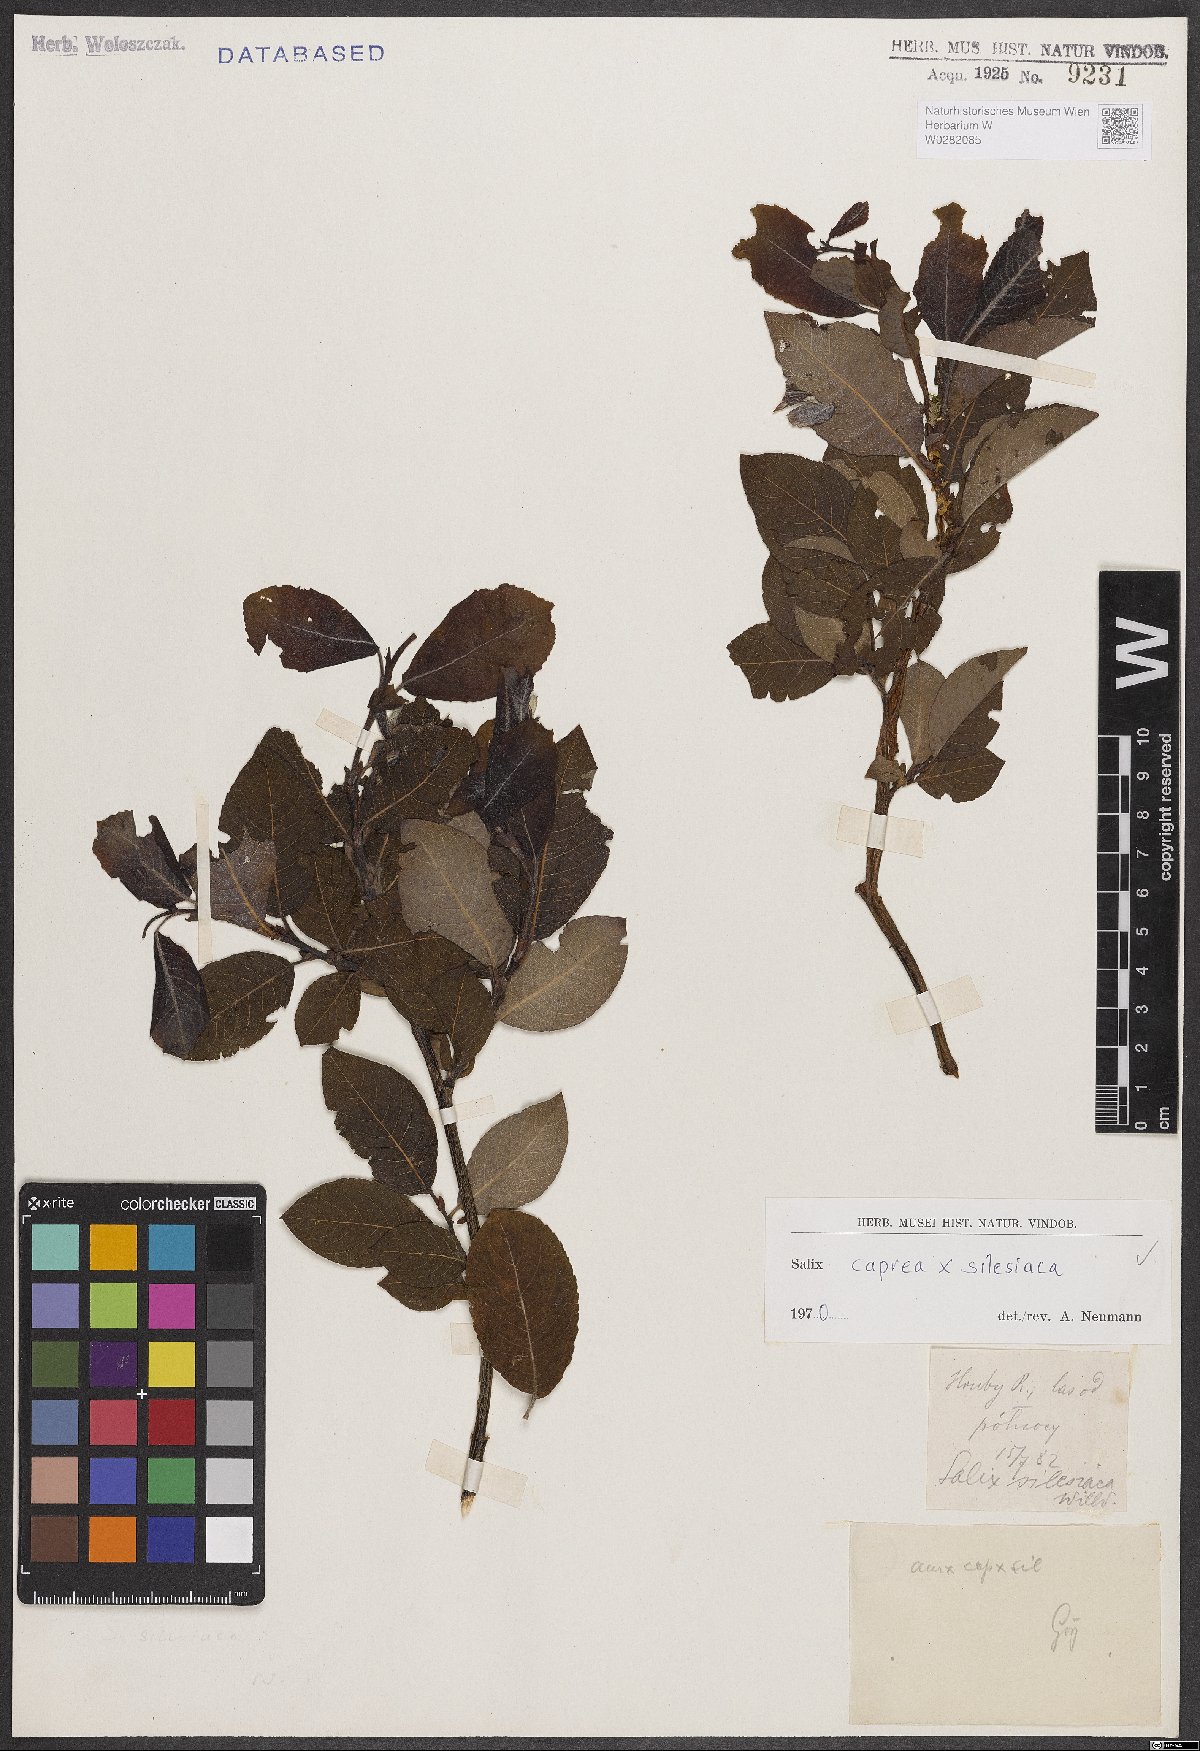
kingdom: Plantae
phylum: Tracheophyta
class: Magnoliopsida
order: Malpighiales
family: Salicaceae
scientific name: Salicaceae
